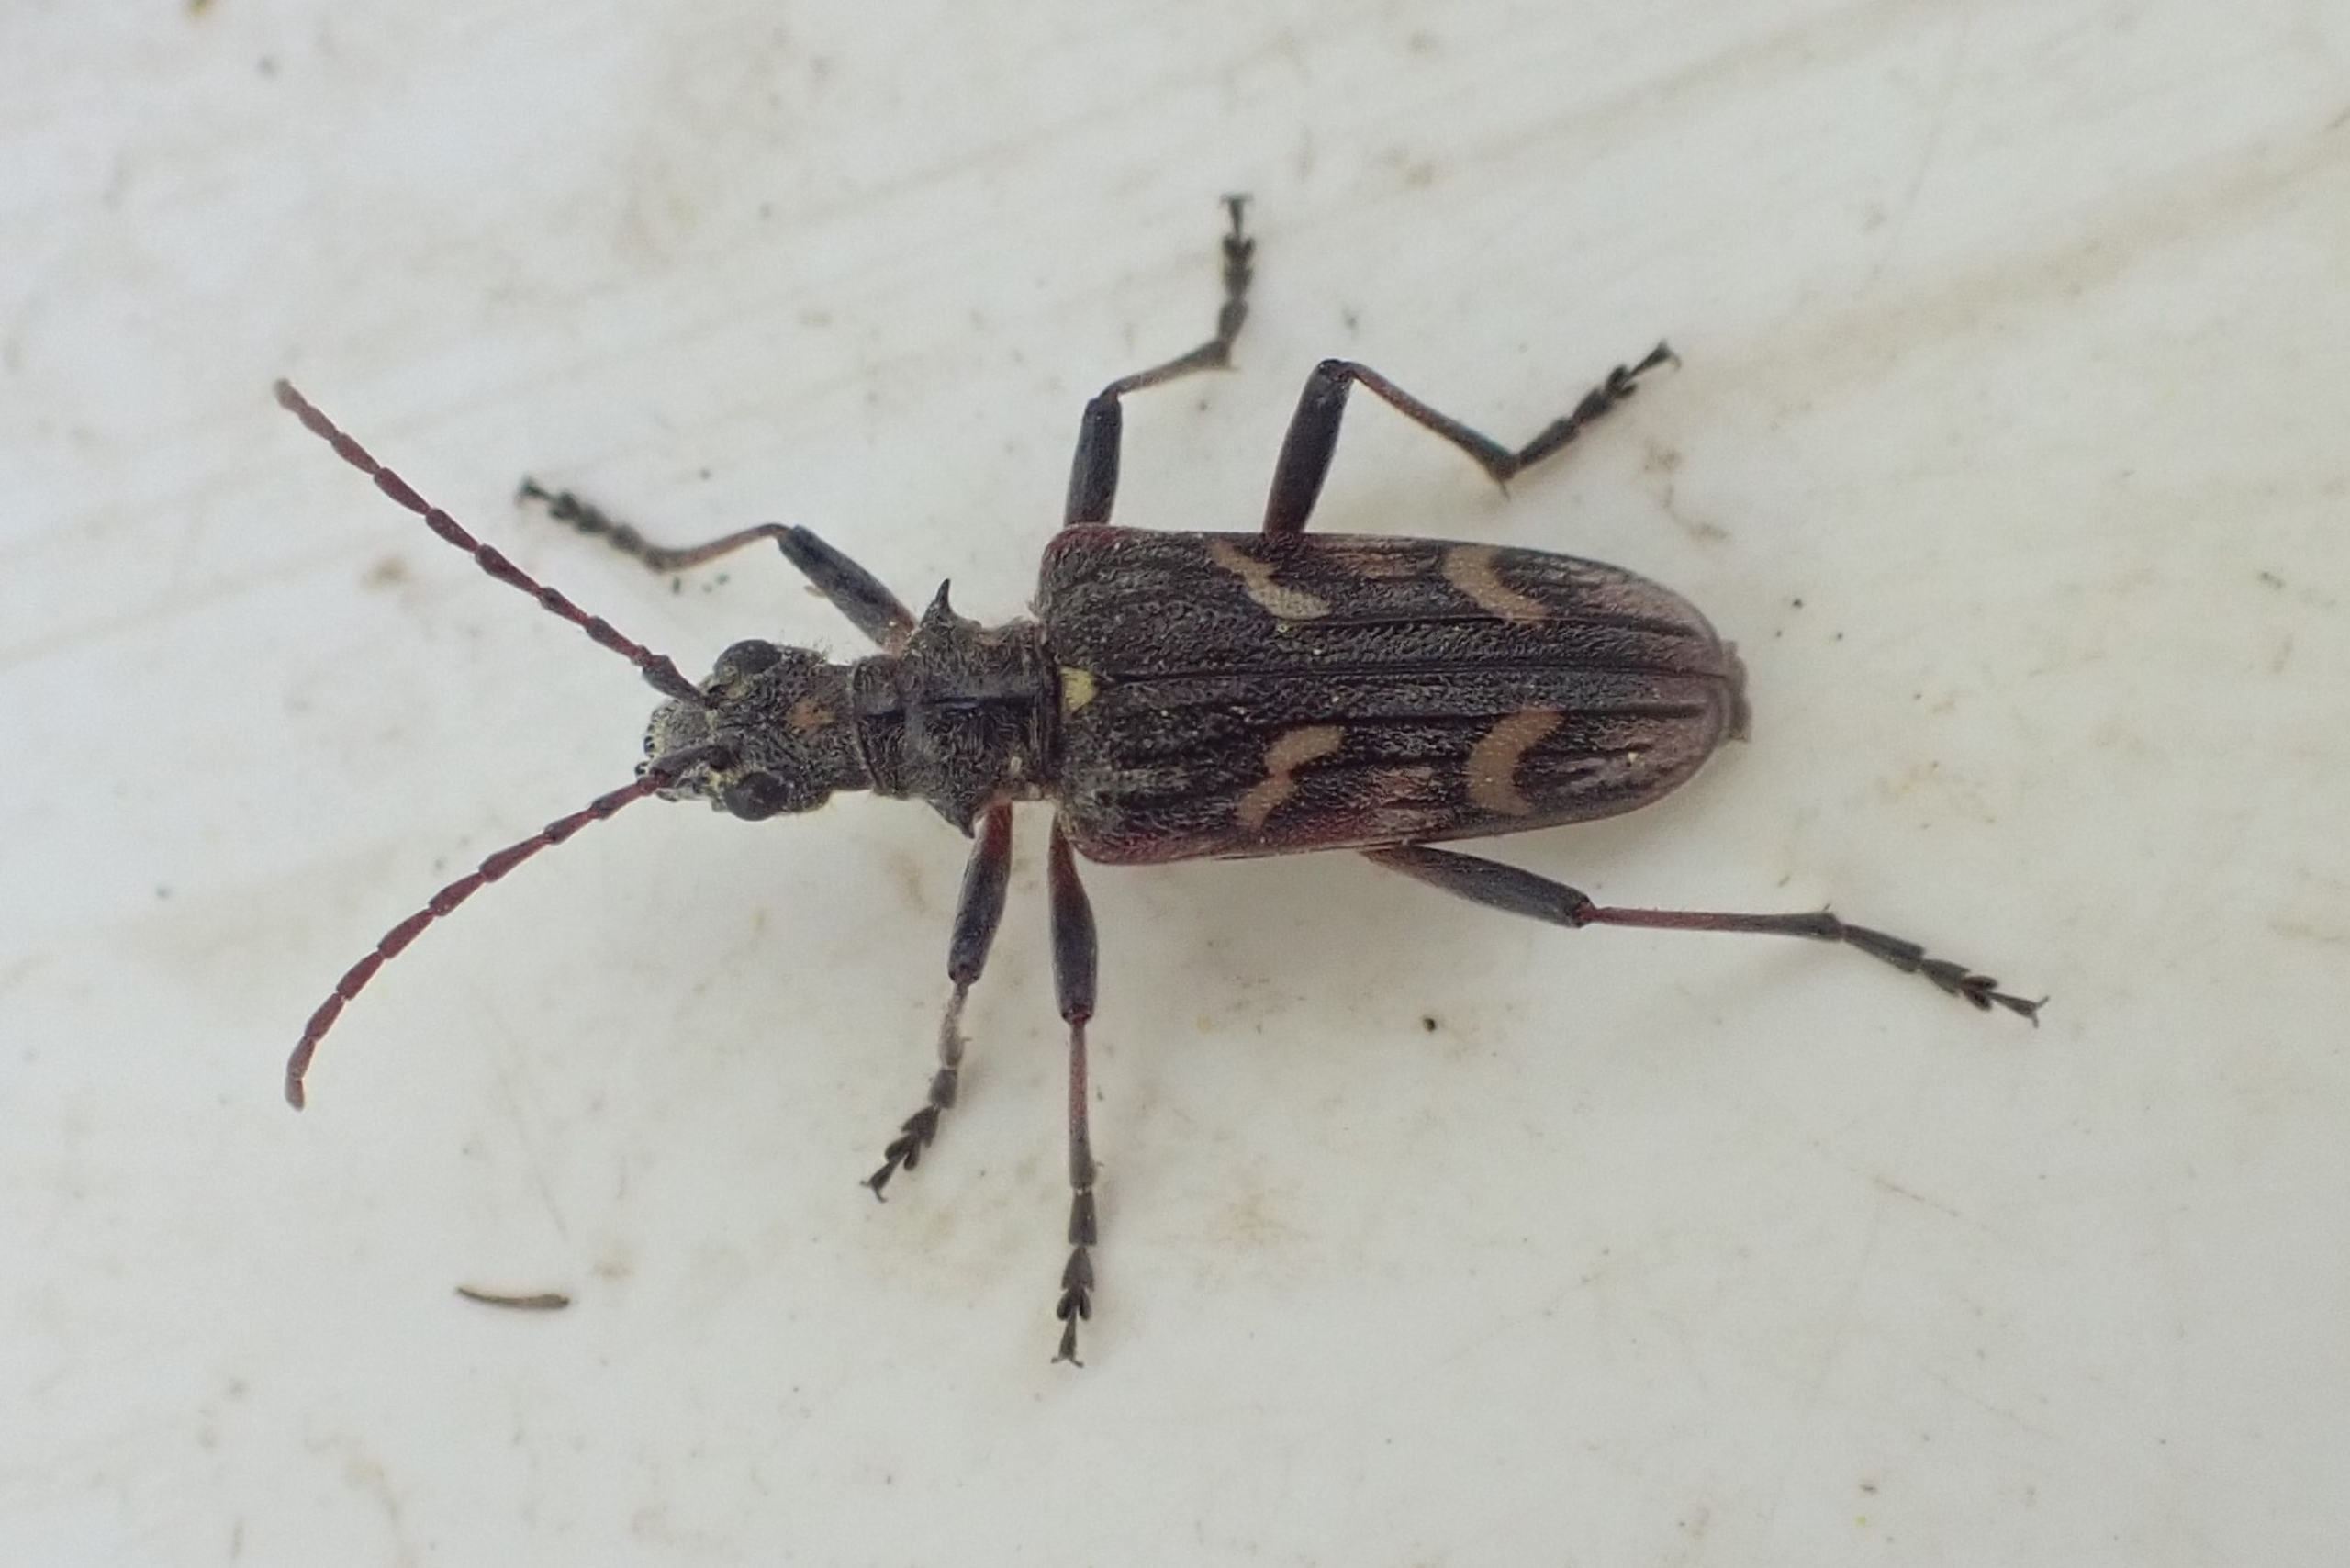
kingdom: Animalia
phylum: Arthropoda
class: Insecta
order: Coleoptera
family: Cerambycidae
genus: Rhagium
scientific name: Rhagium bifasciatum
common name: Båndet tandbuk
